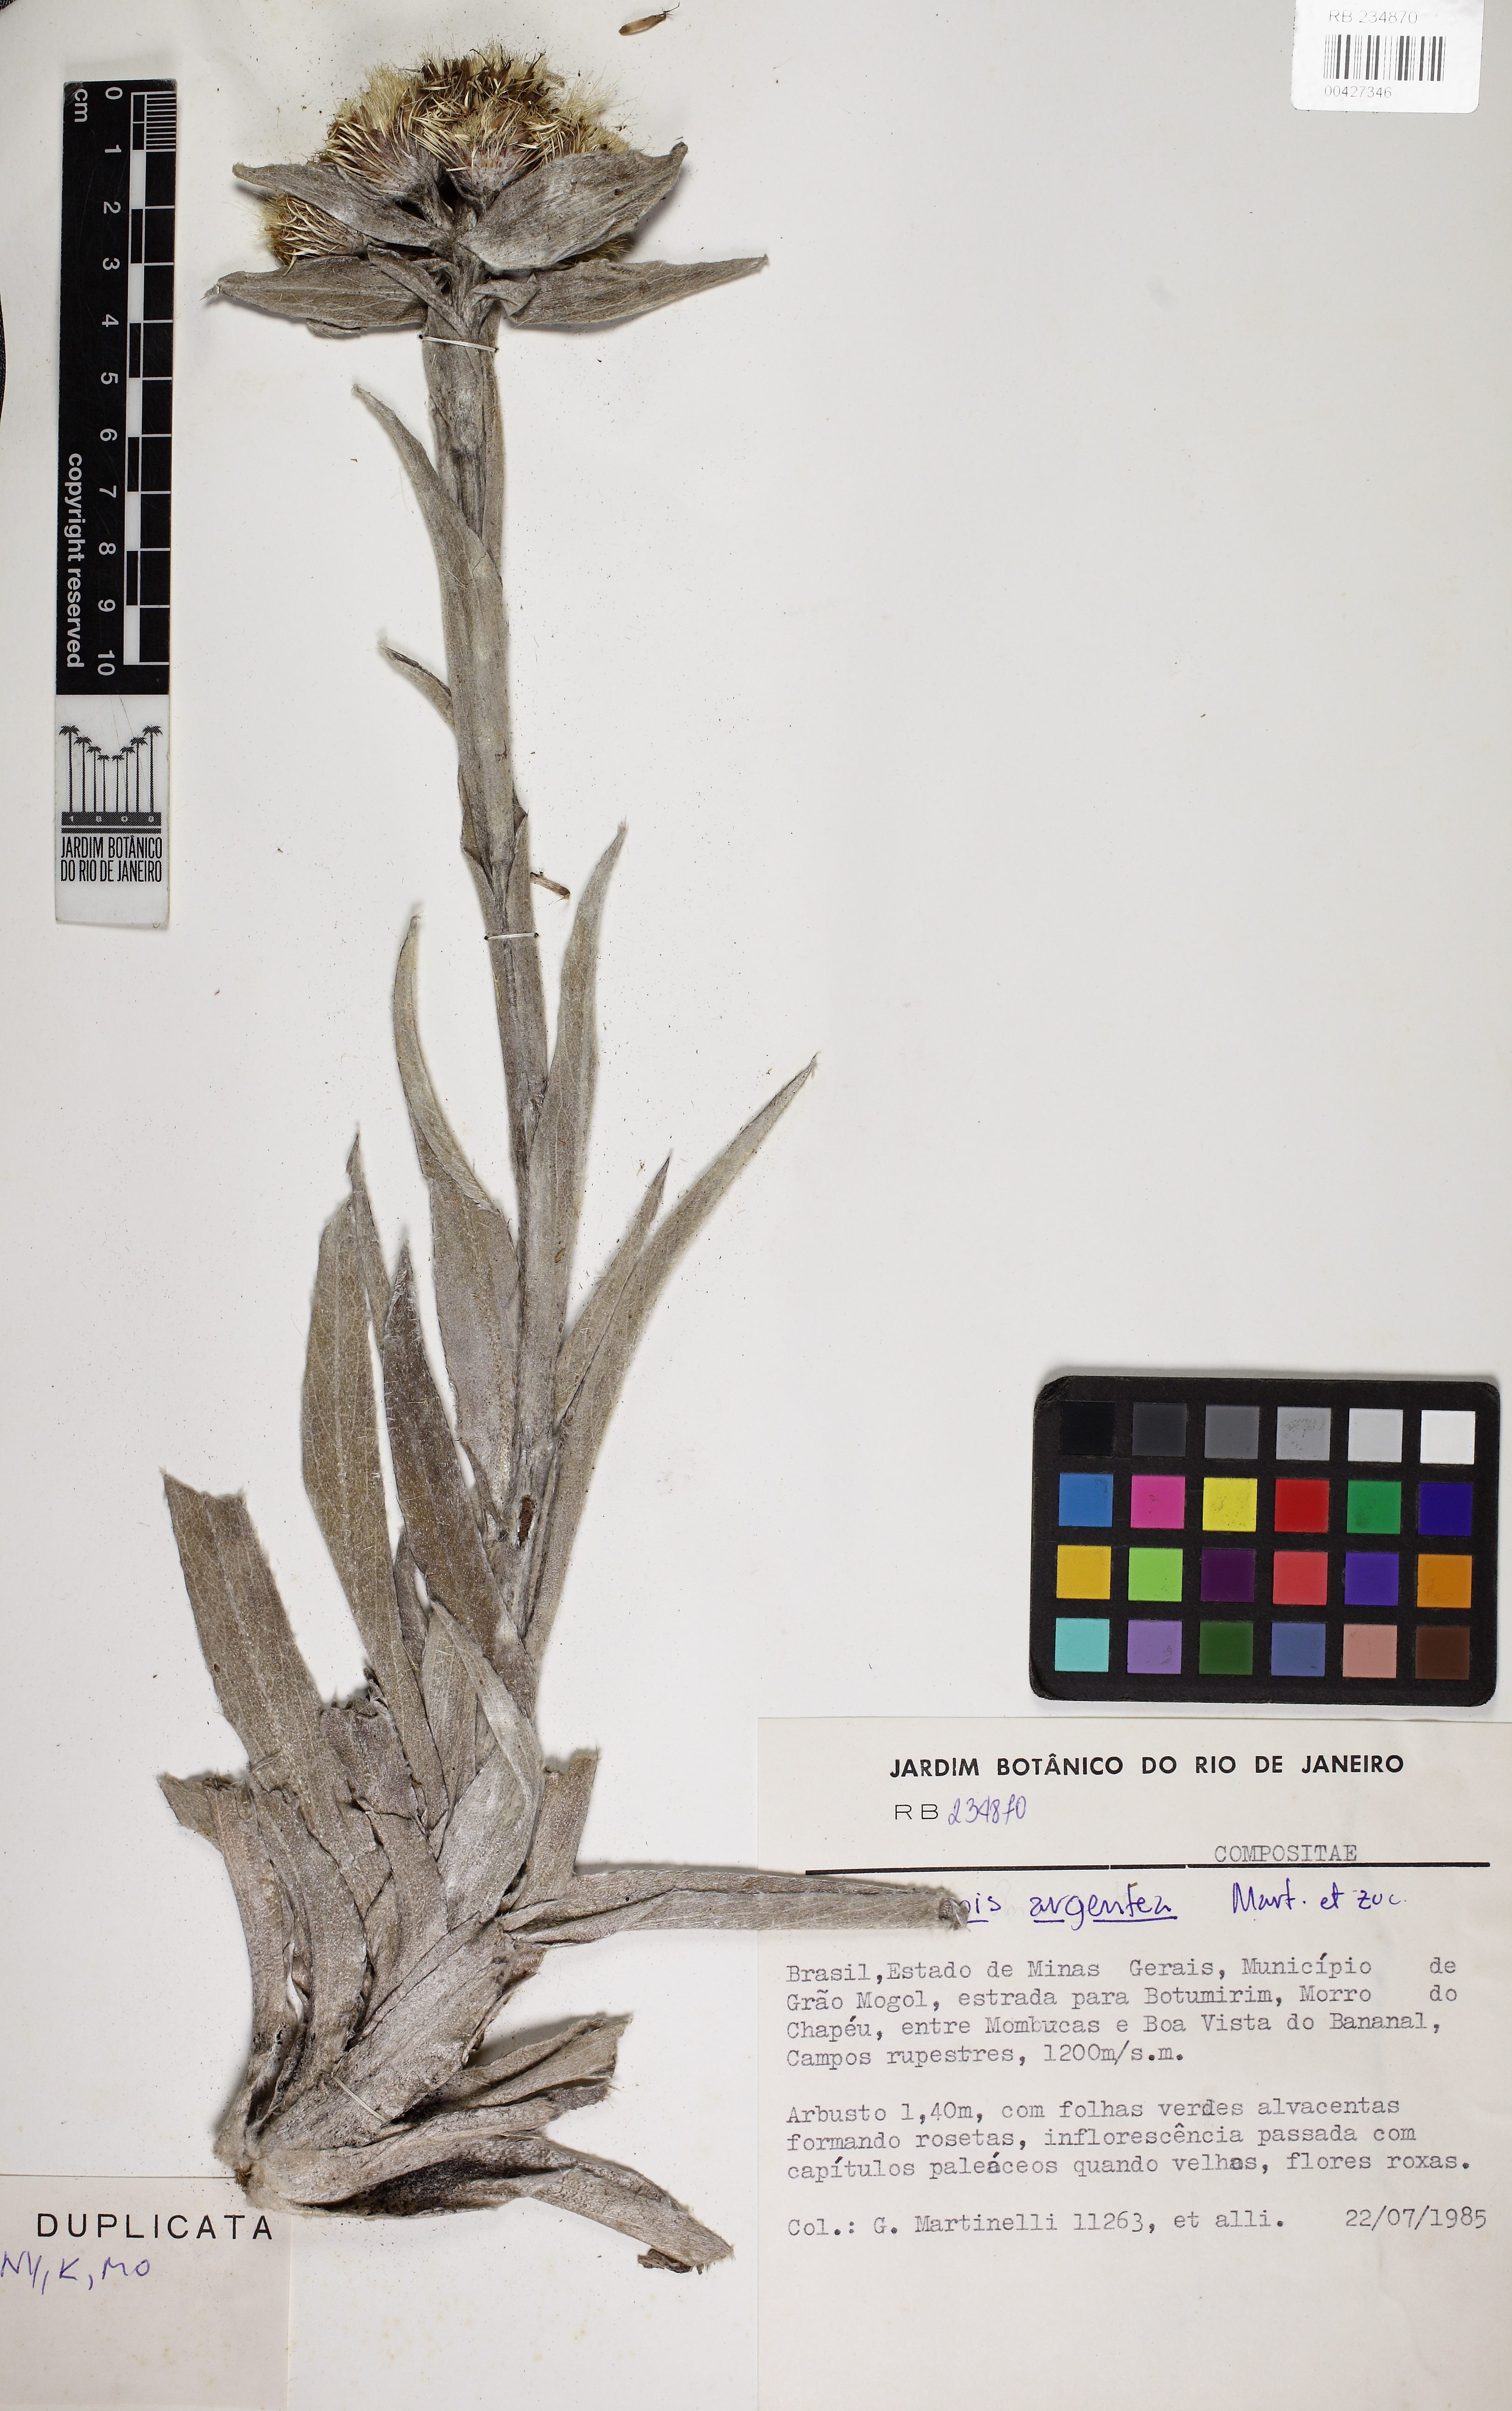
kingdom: Plantae
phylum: Tracheophyta
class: Magnoliopsida
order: Asterales
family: Asteraceae
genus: Proteopsis
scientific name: Proteopsis argentea
